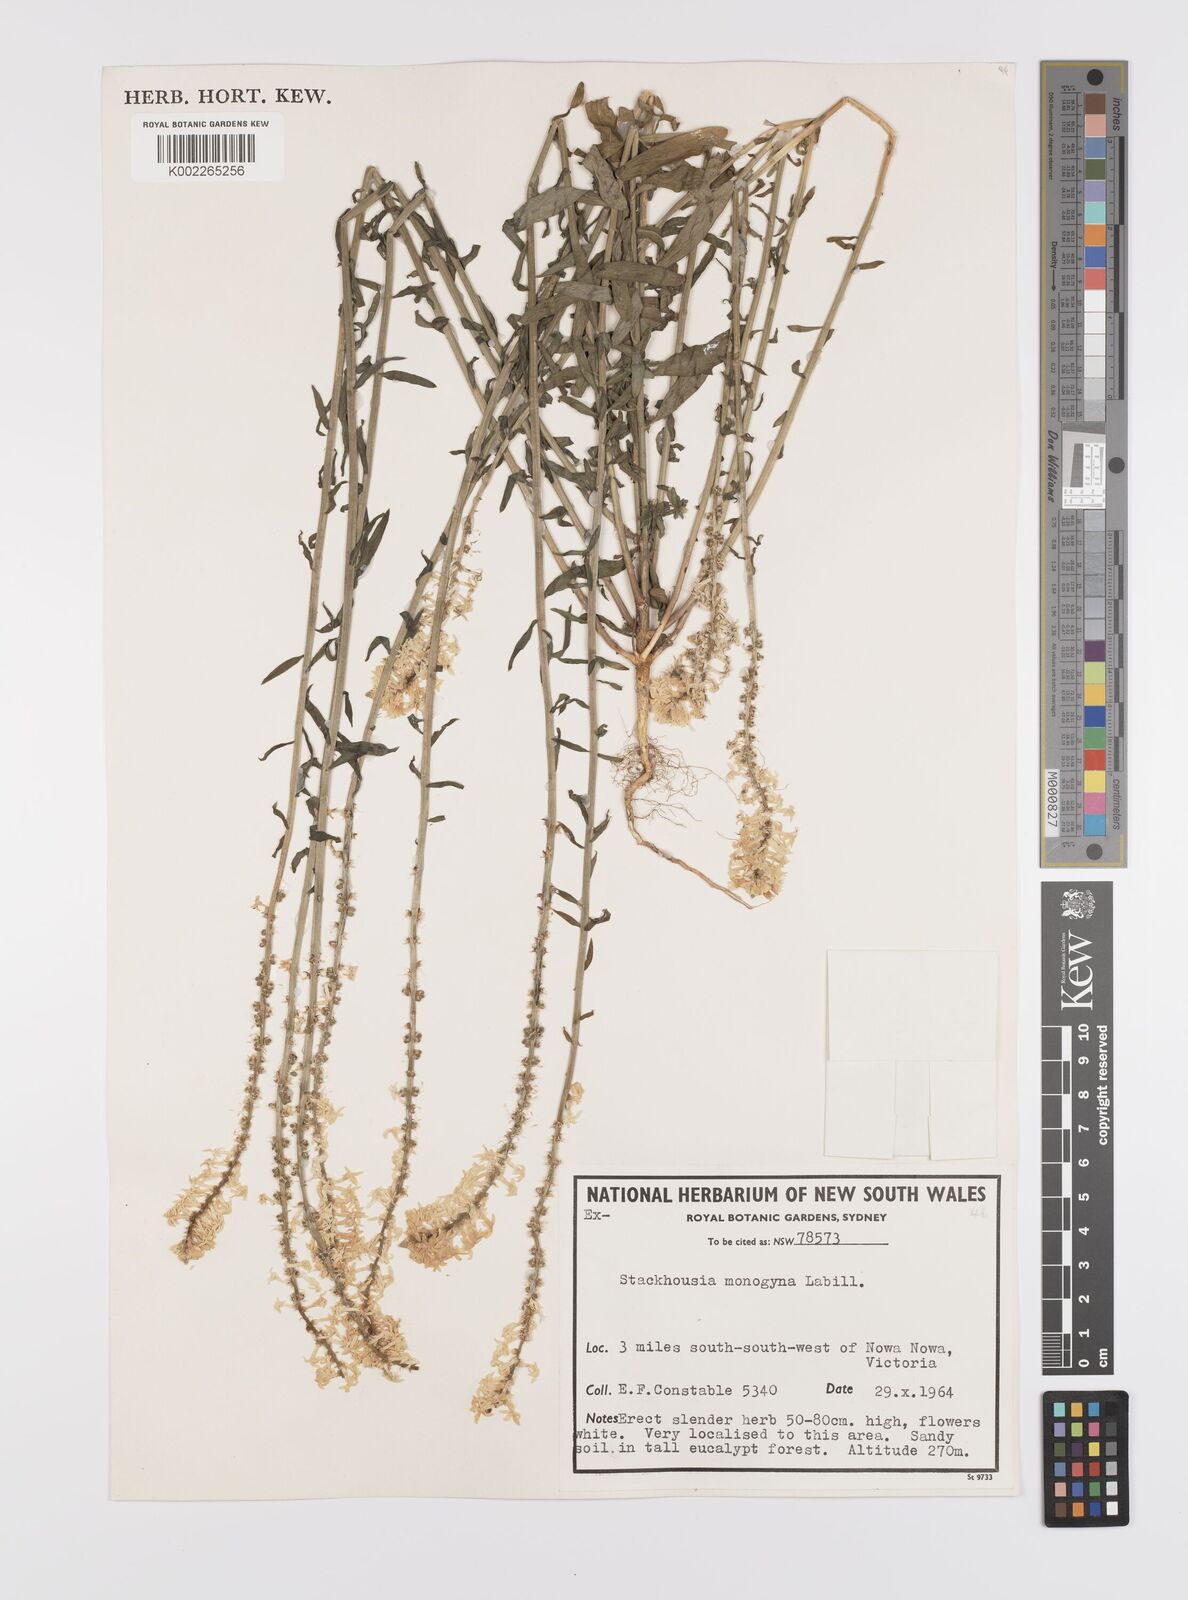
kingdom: Plantae
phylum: Tracheophyta
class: Magnoliopsida
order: Celastrales
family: Celastraceae
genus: Stackhousia
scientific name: Stackhousia monogyna
